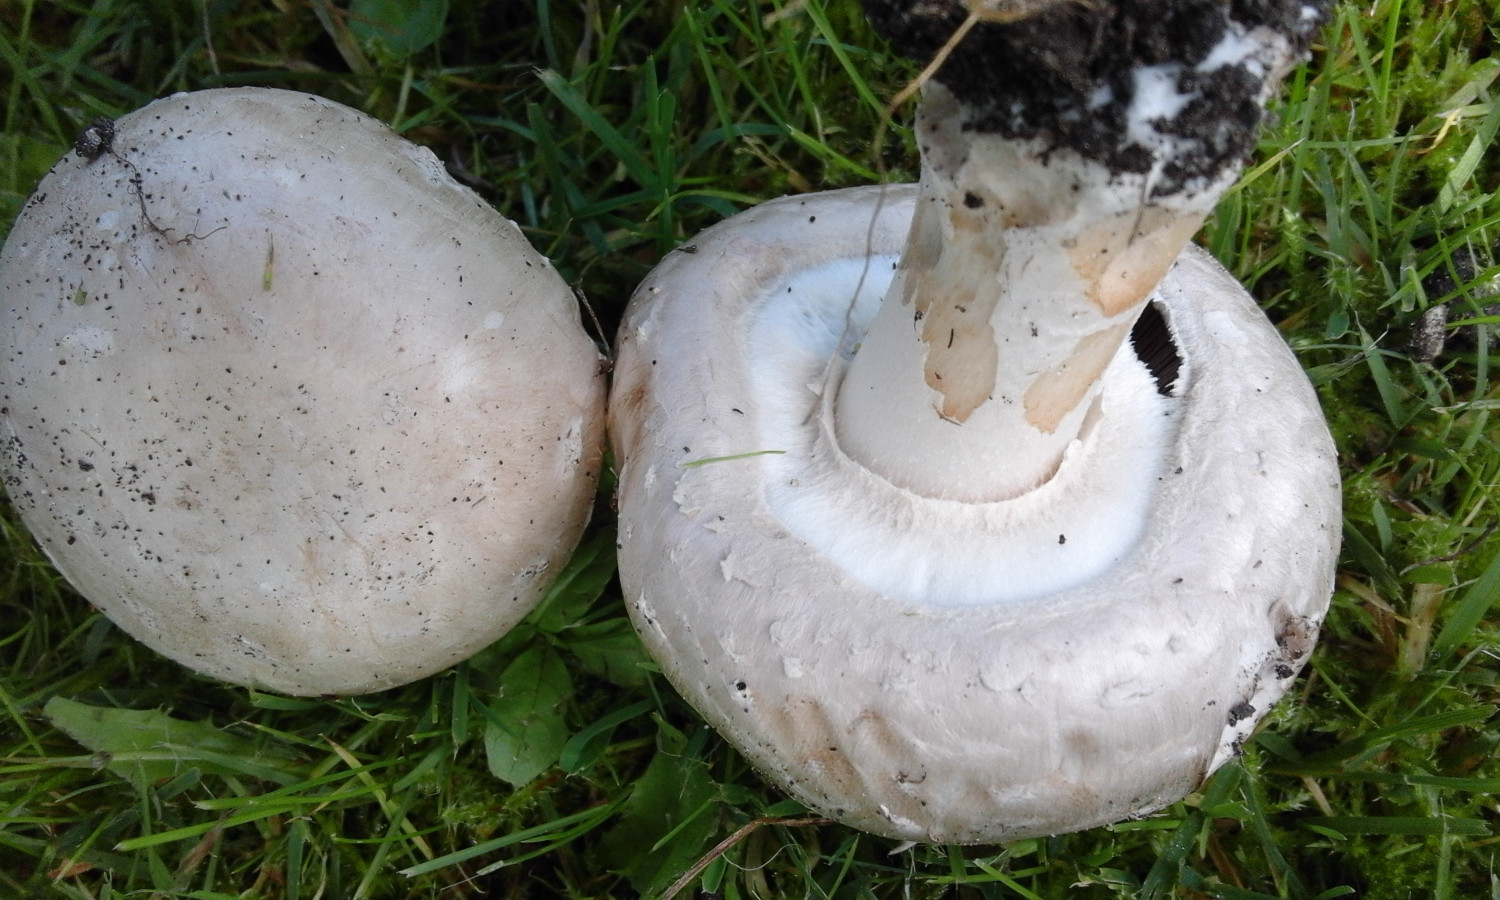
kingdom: Fungi
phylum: Basidiomycota
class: Agaricomycetes
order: Agaricales
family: Agaricaceae
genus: Agaricus
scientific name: Agaricus
